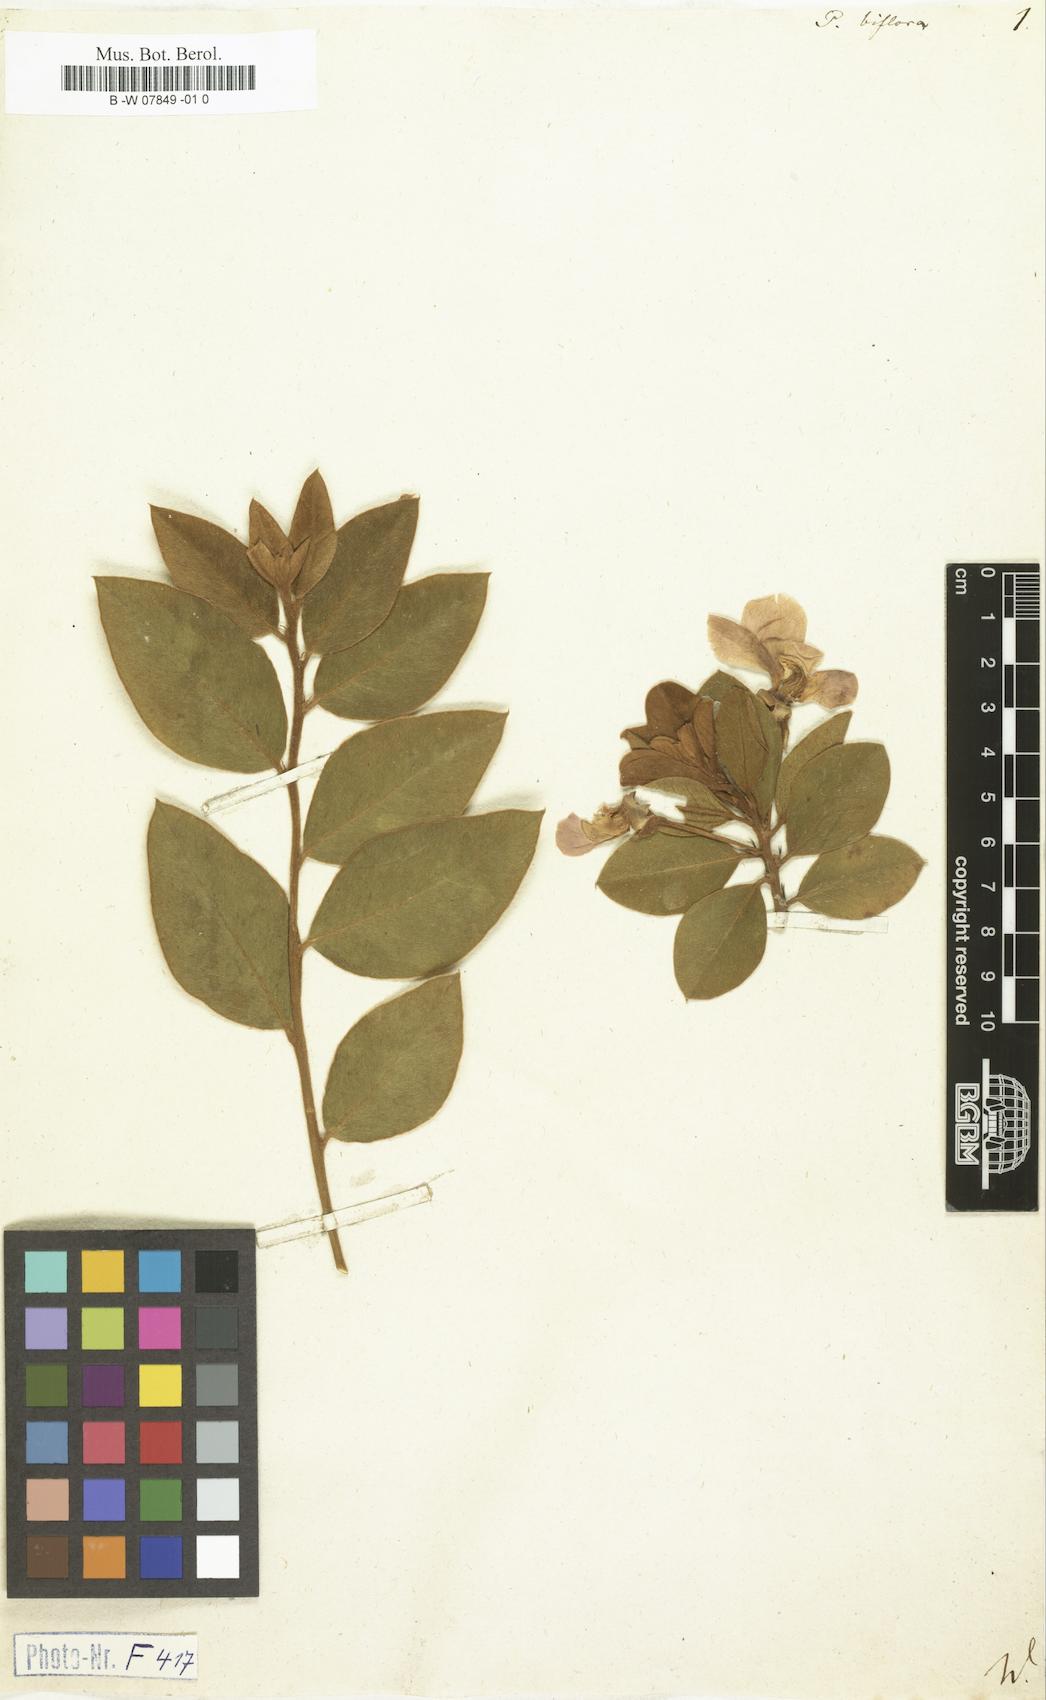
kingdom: Plantae
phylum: Tracheophyta
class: Magnoliopsida
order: Fabales
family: Fabaceae
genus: Podalyria
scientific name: Podalyria biflora
